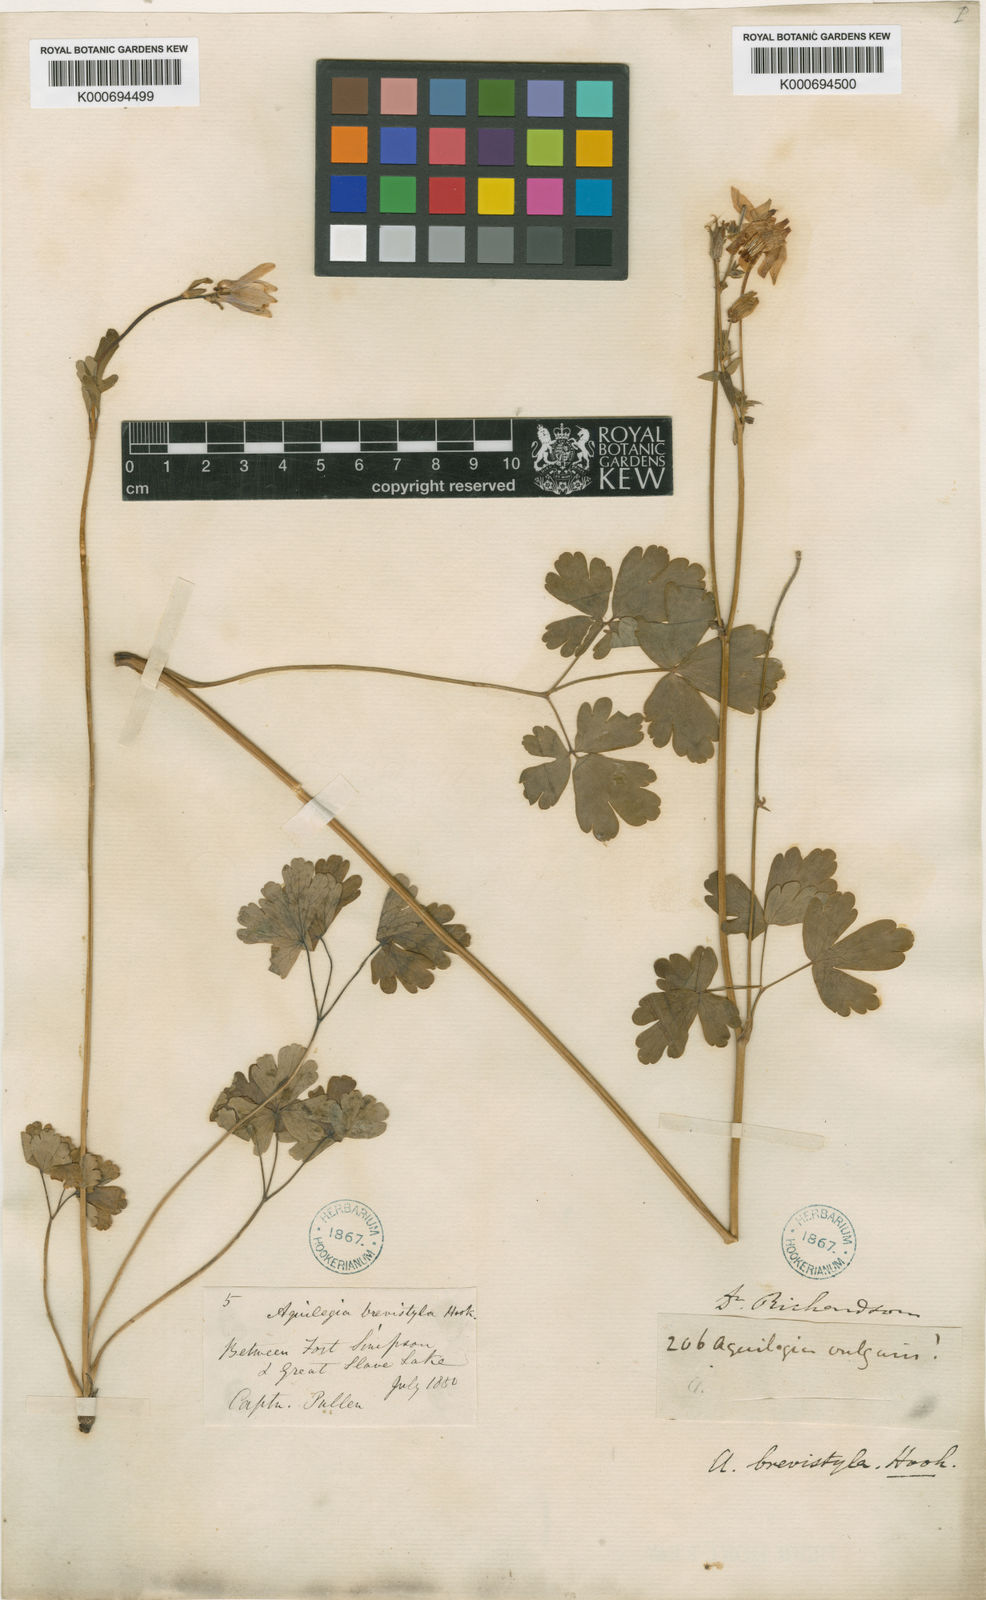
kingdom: Plantae
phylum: Tracheophyta
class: Magnoliopsida
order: Ranunculales
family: Ranunculaceae
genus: Aquilegia
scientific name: Aquilegia brevistyla
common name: Yukon columbine
